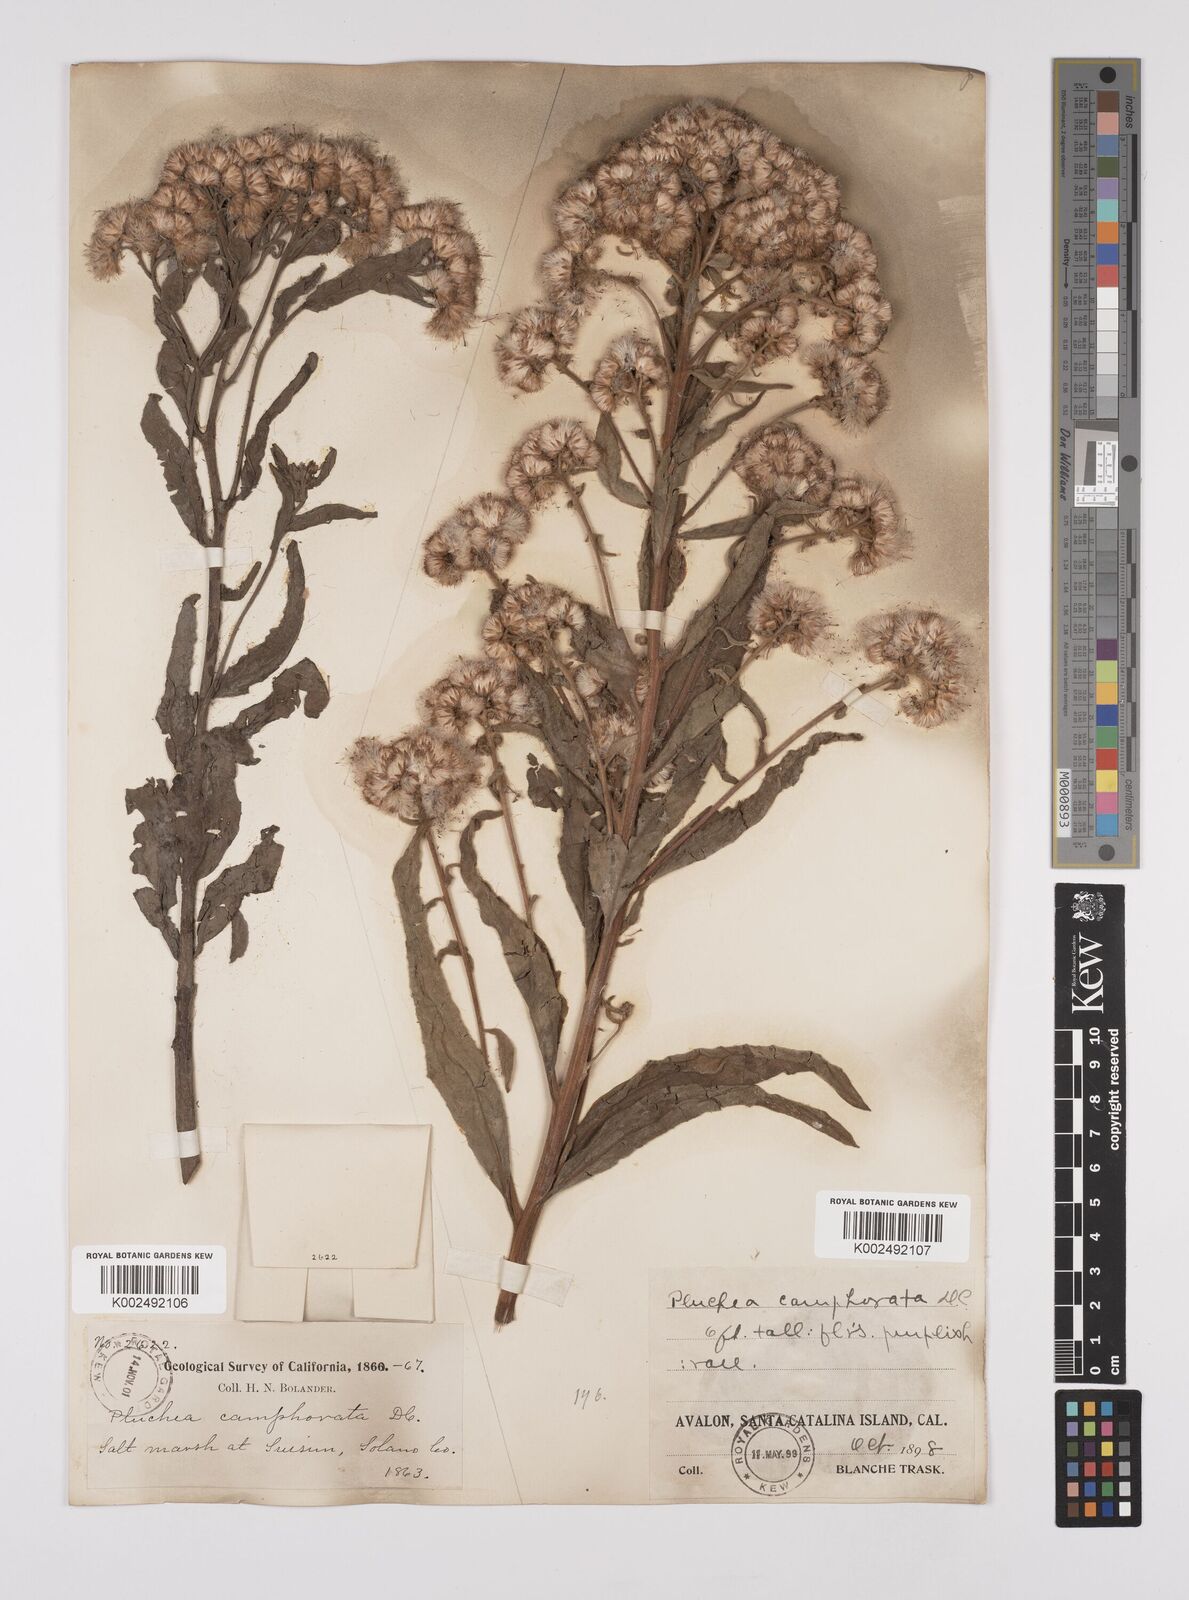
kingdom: Plantae
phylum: Tracheophyta
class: Magnoliopsida
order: Asterales
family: Asteraceae
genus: Pluchea
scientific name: Pluchea
